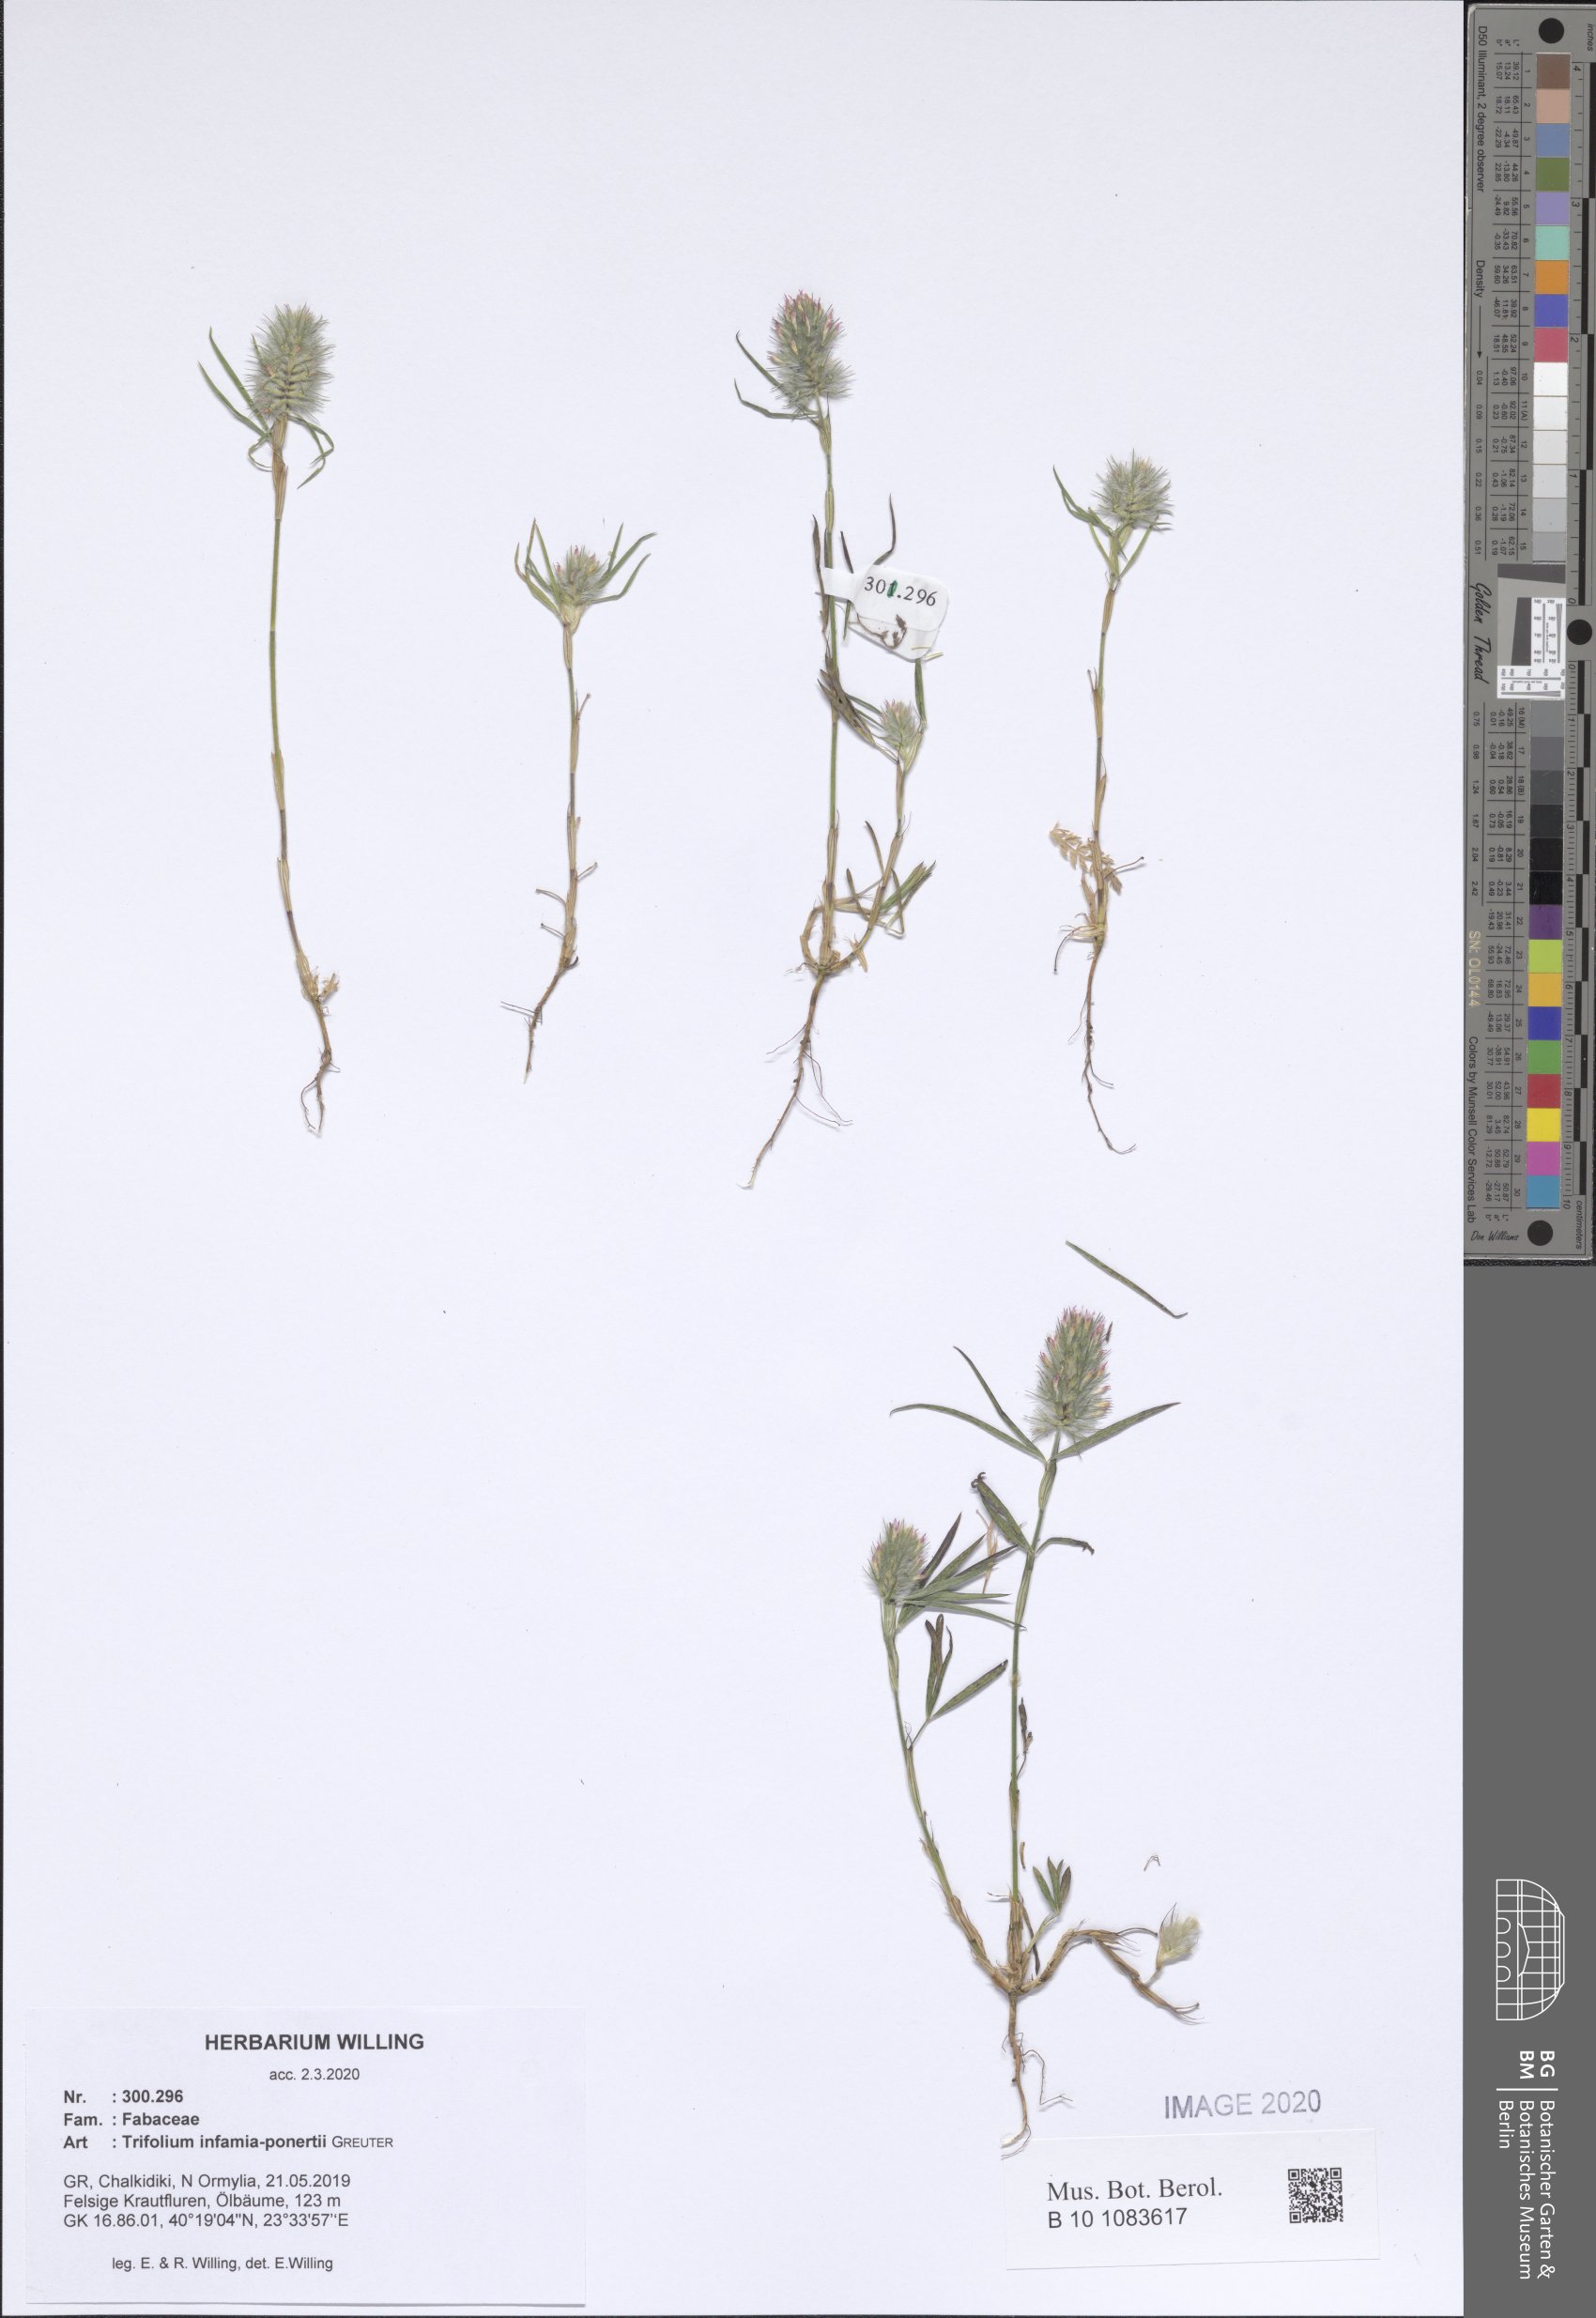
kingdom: Plantae
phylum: Tracheophyta
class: Magnoliopsida
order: Fabales
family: Fabaceae
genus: Trifolium
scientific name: Trifolium infamia-ponertii
